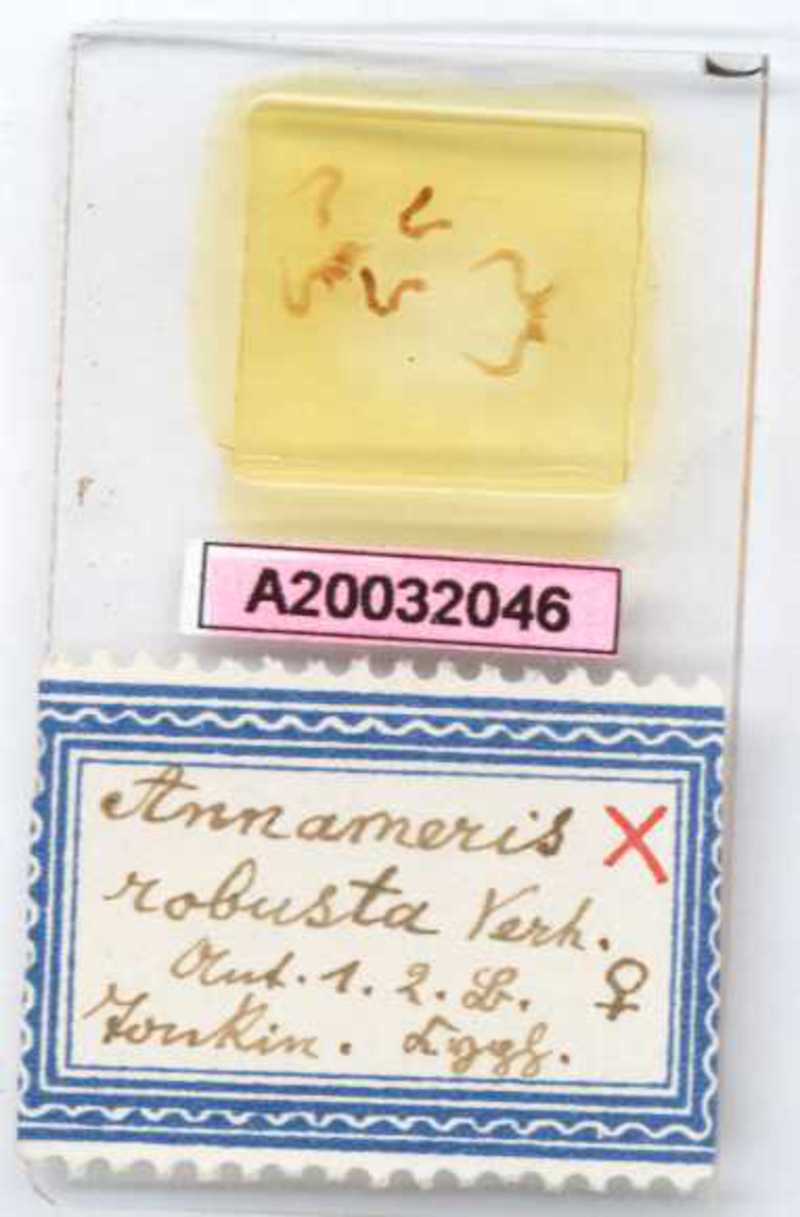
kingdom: Animalia
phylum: Arthropoda
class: Diplopoda
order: Glomerida
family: Glomeridae
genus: Annameris
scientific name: Annameris robusta
